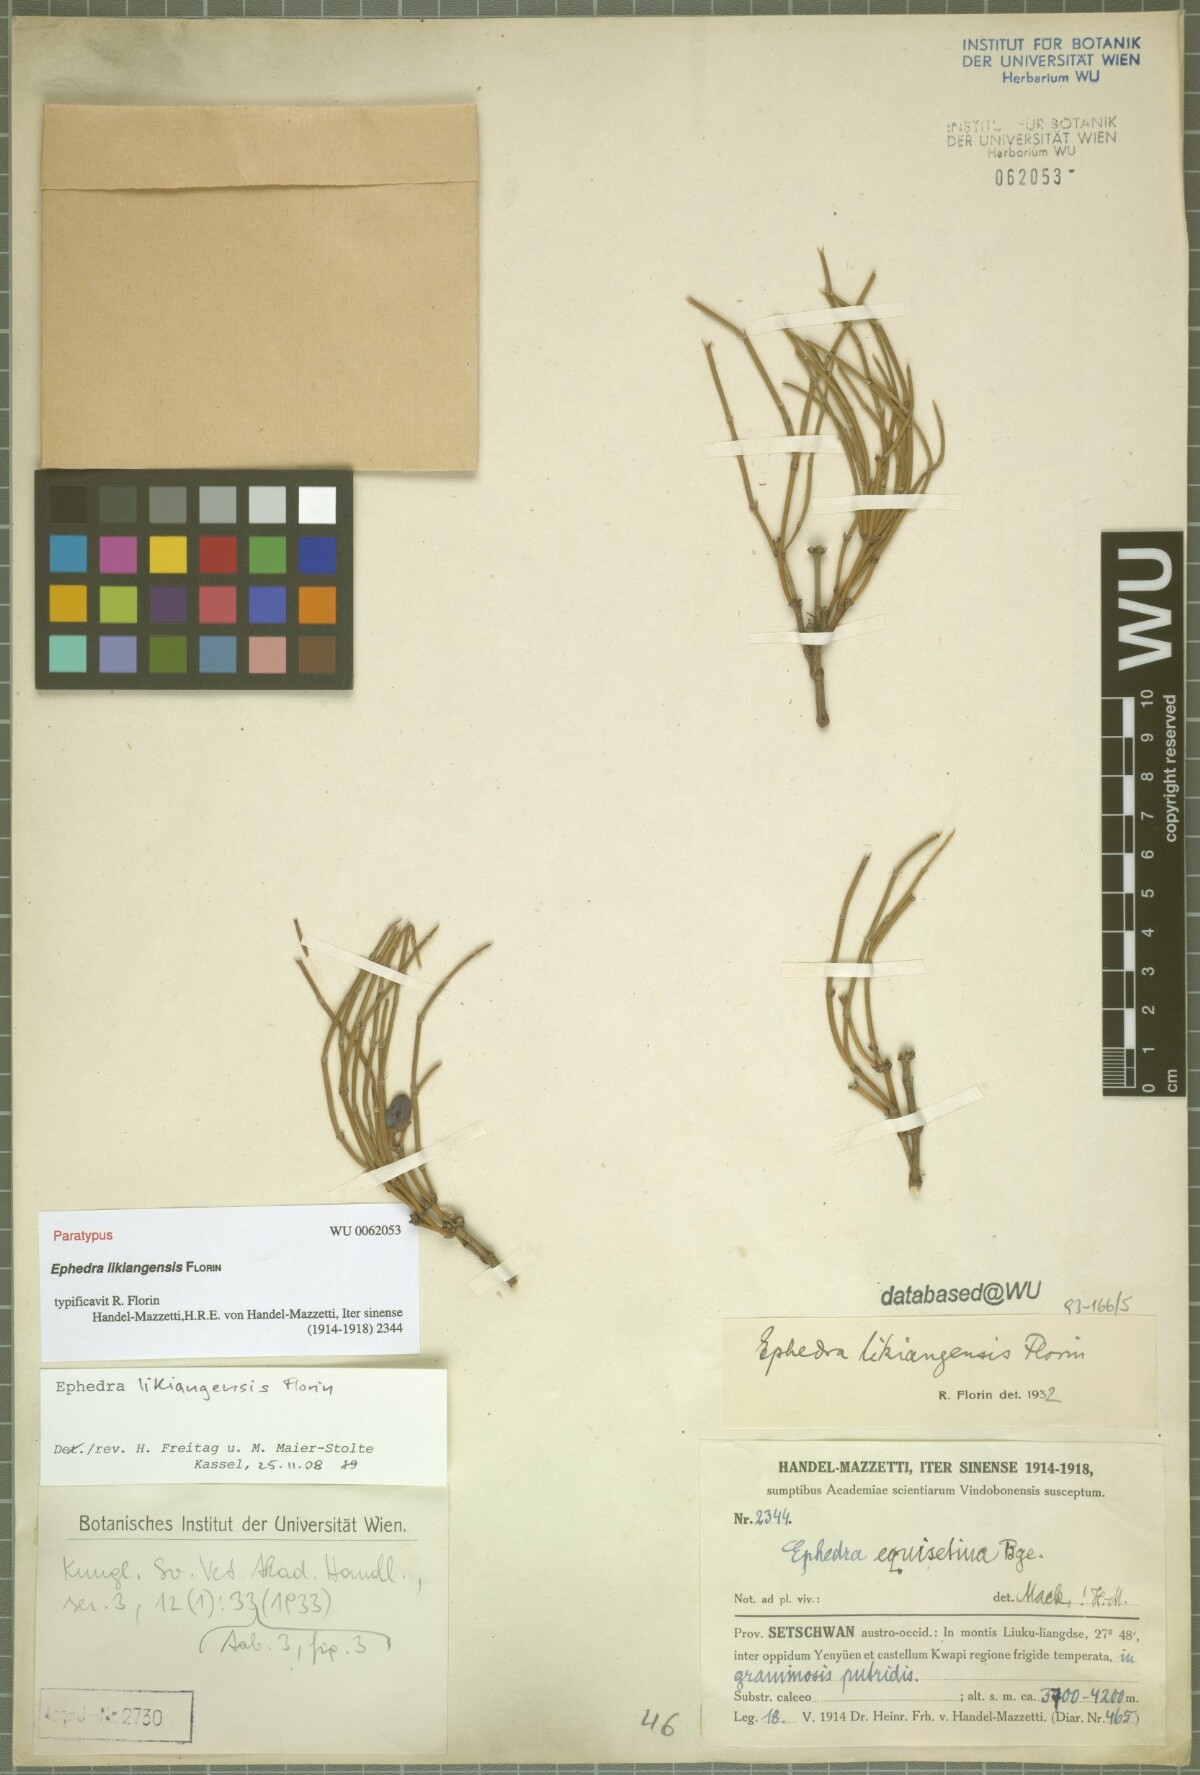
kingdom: Plantae
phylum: Tracheophyta
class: Gnetopsida
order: Ephedrales
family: Ephedraceae
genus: Ephedra
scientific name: Ephedra likiangensis
